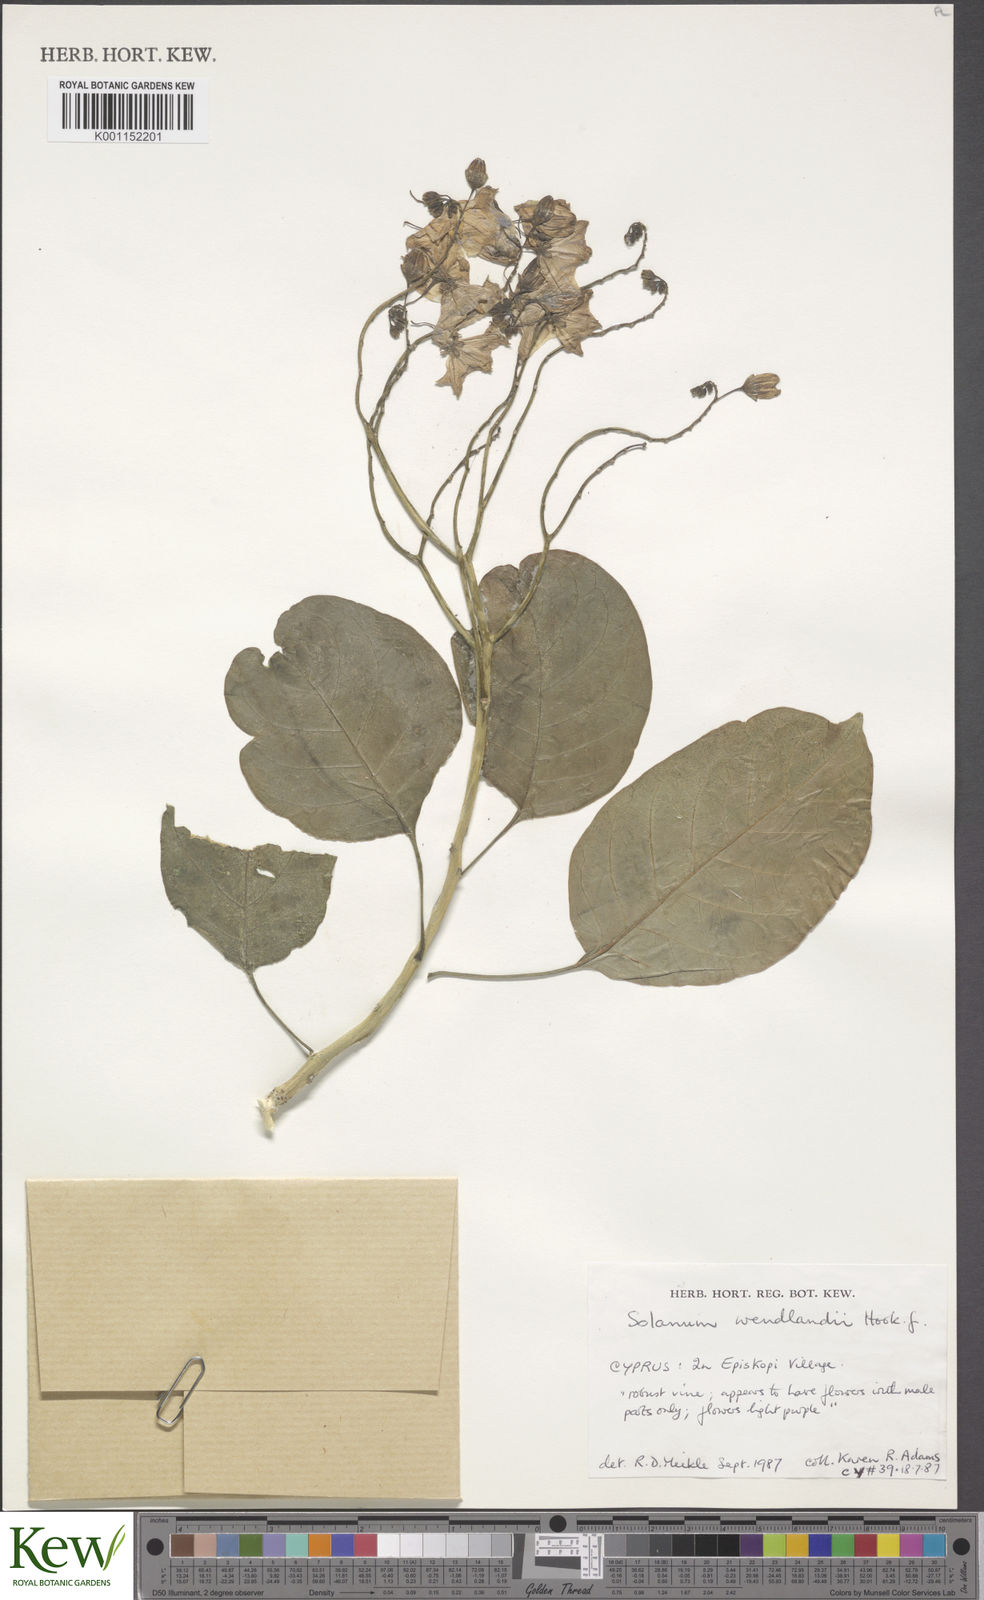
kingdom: Plantae
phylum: Tracheophyta
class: Magnoliopsida
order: Solanales
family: Solanaceae
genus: Solanum
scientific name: Solanum wendlandii
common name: Costa rican nightshade
